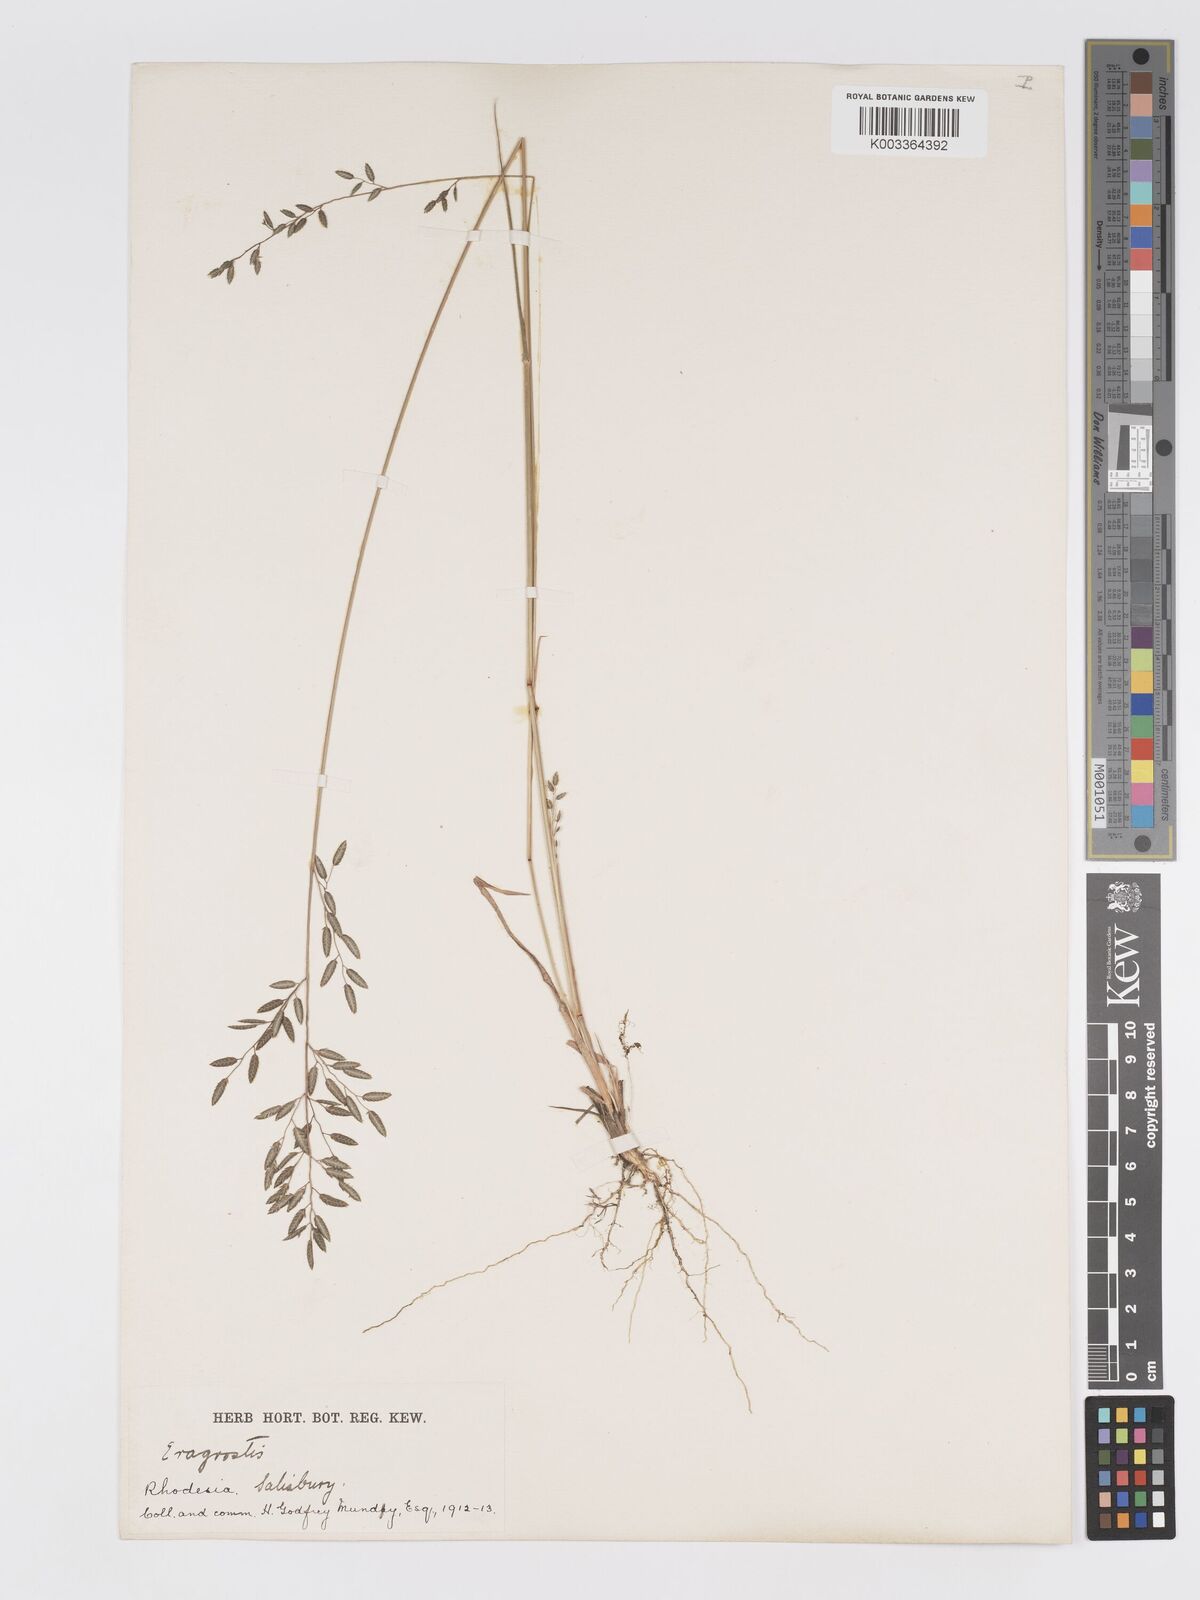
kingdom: Plantae
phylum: Tracheophyta
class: Liliopsida
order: Poales
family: Poaceae
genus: Eragrostis
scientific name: Eragrostis racemosa
